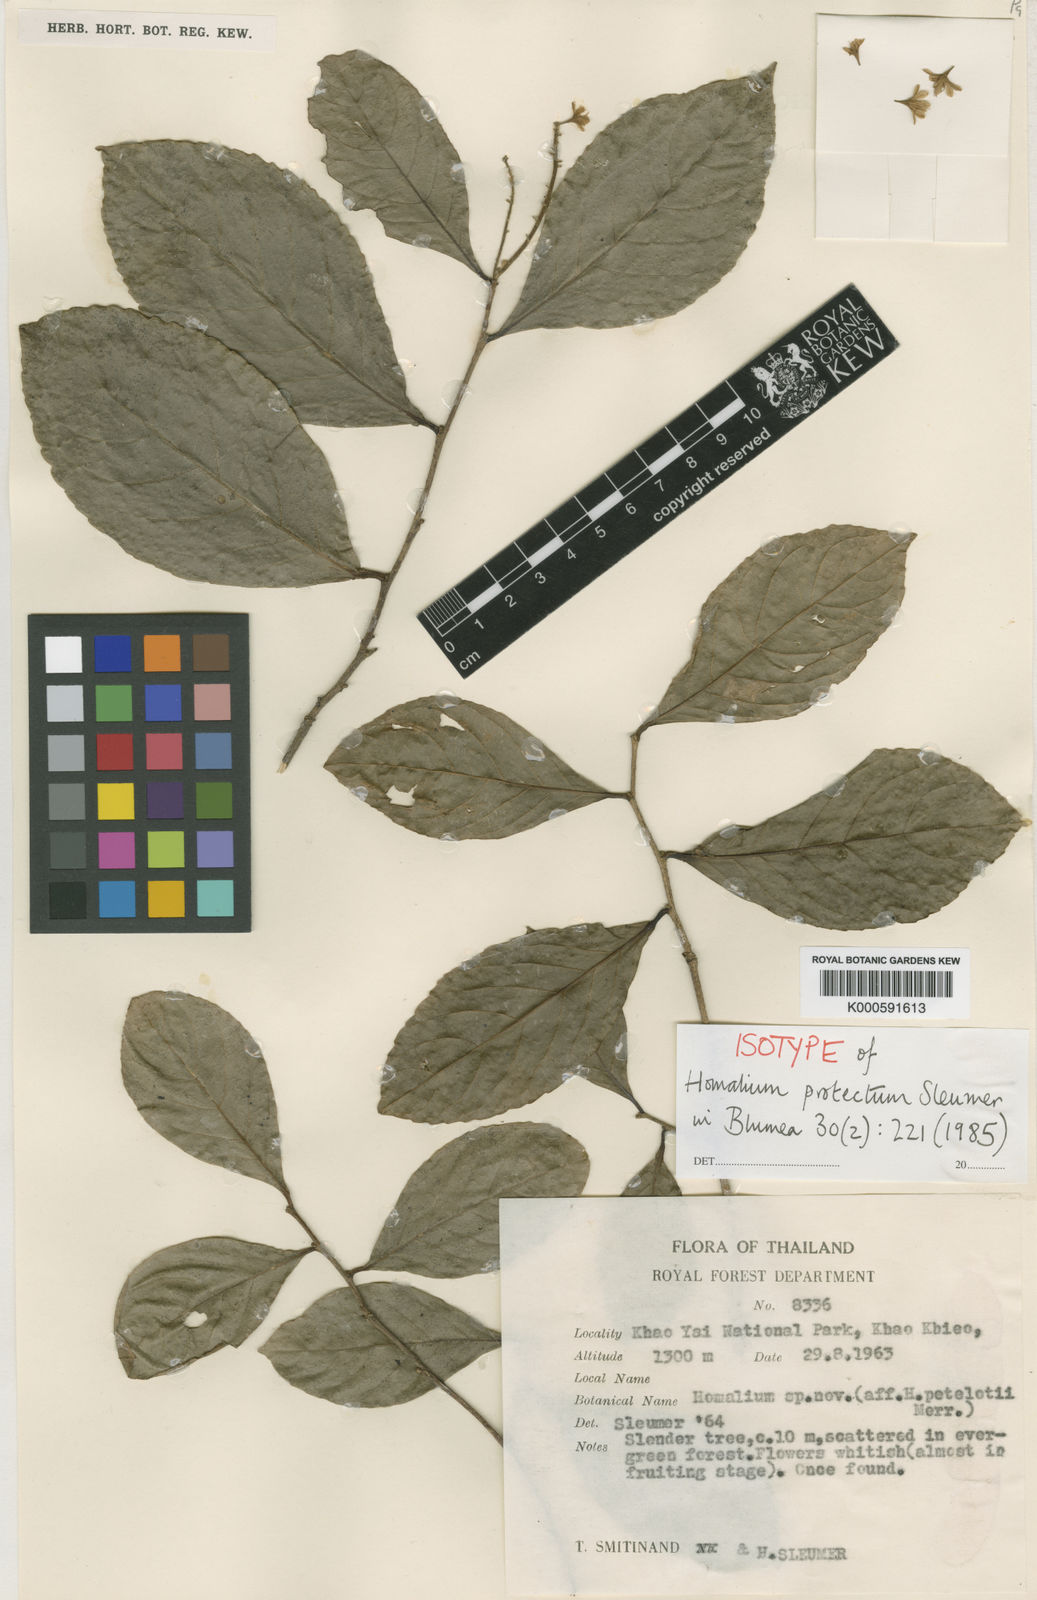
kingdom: Plantae
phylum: Tracheophyta
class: Magnoliopsida
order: Malpighiales
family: Salicaceae
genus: Homalium
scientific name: Homalium cochinchinensis
